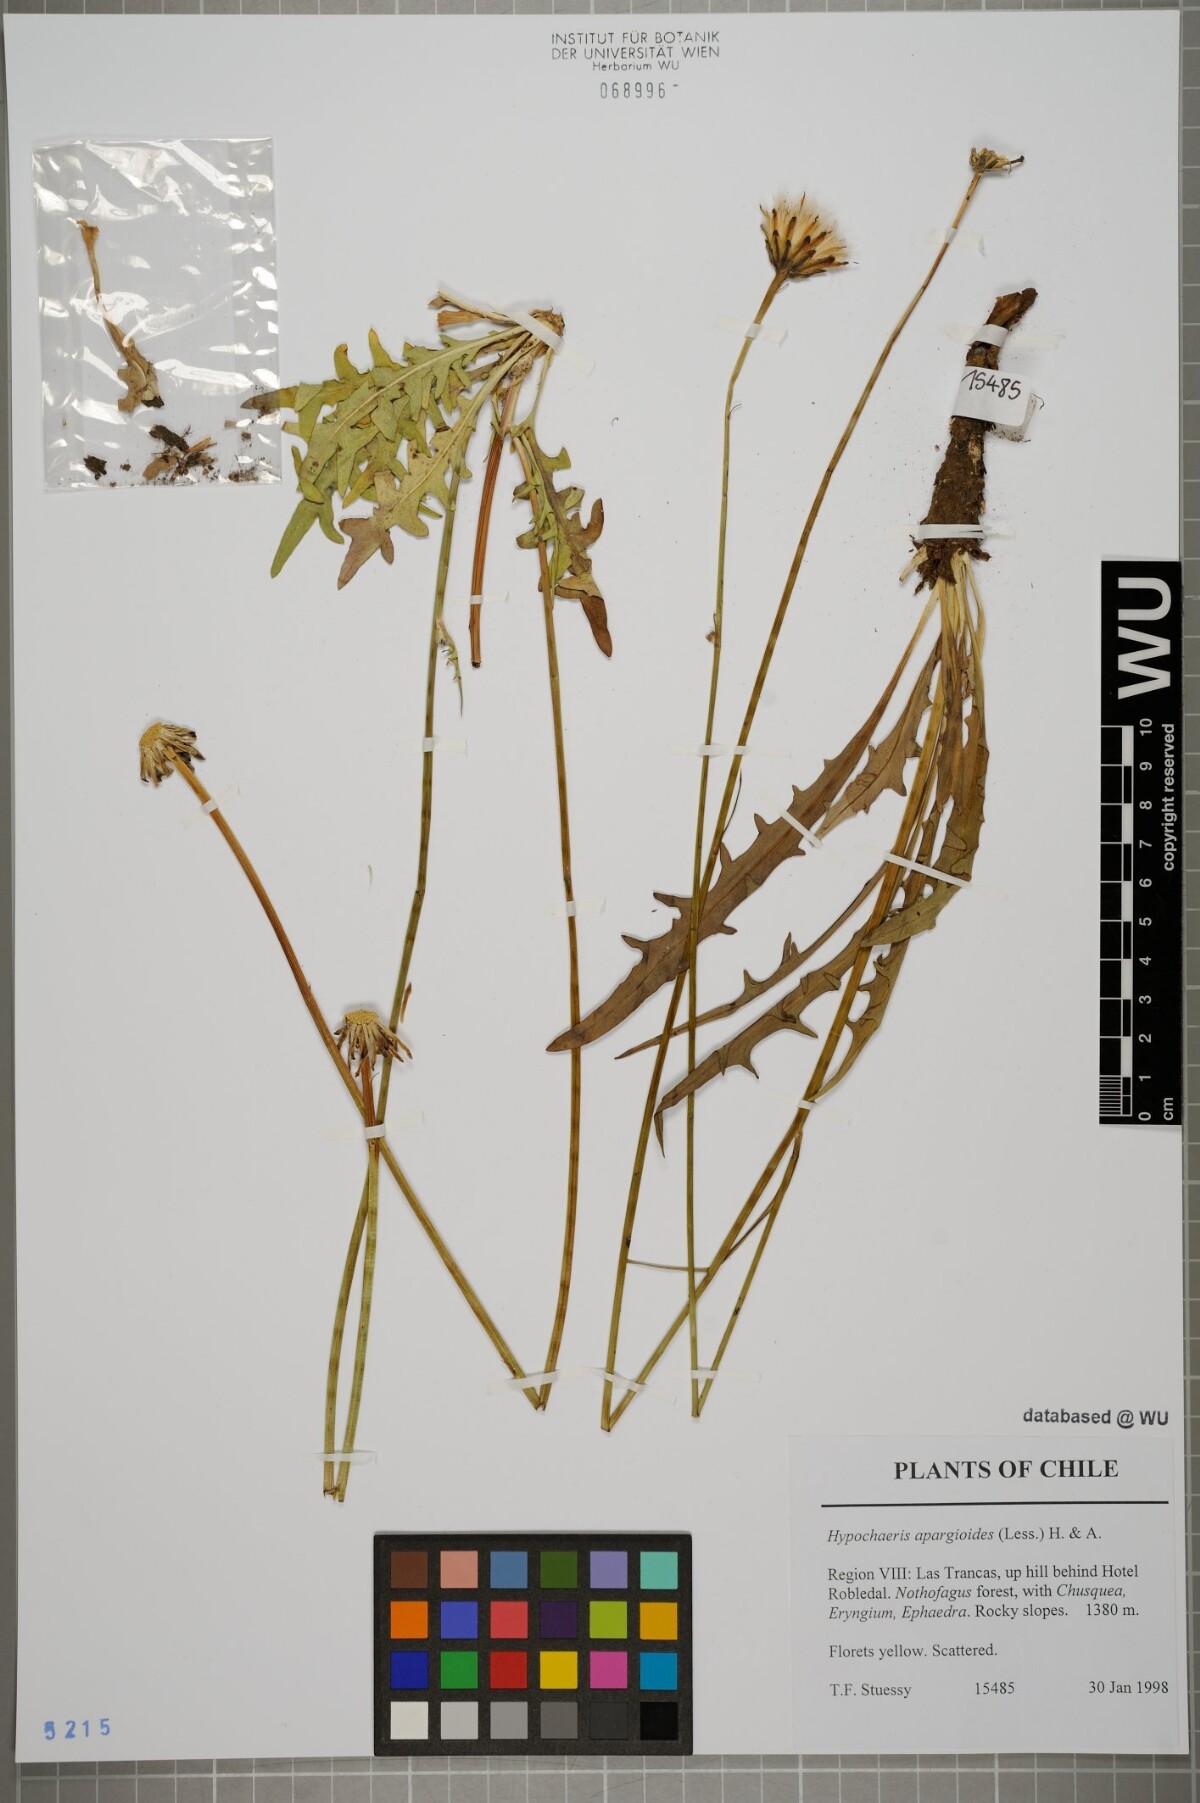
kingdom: Plantae
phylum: Tracheophyta
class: Magnoliopsida
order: Asterales
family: Asteraceae
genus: Hypochaeris
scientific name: Hypochaeris apargioides
